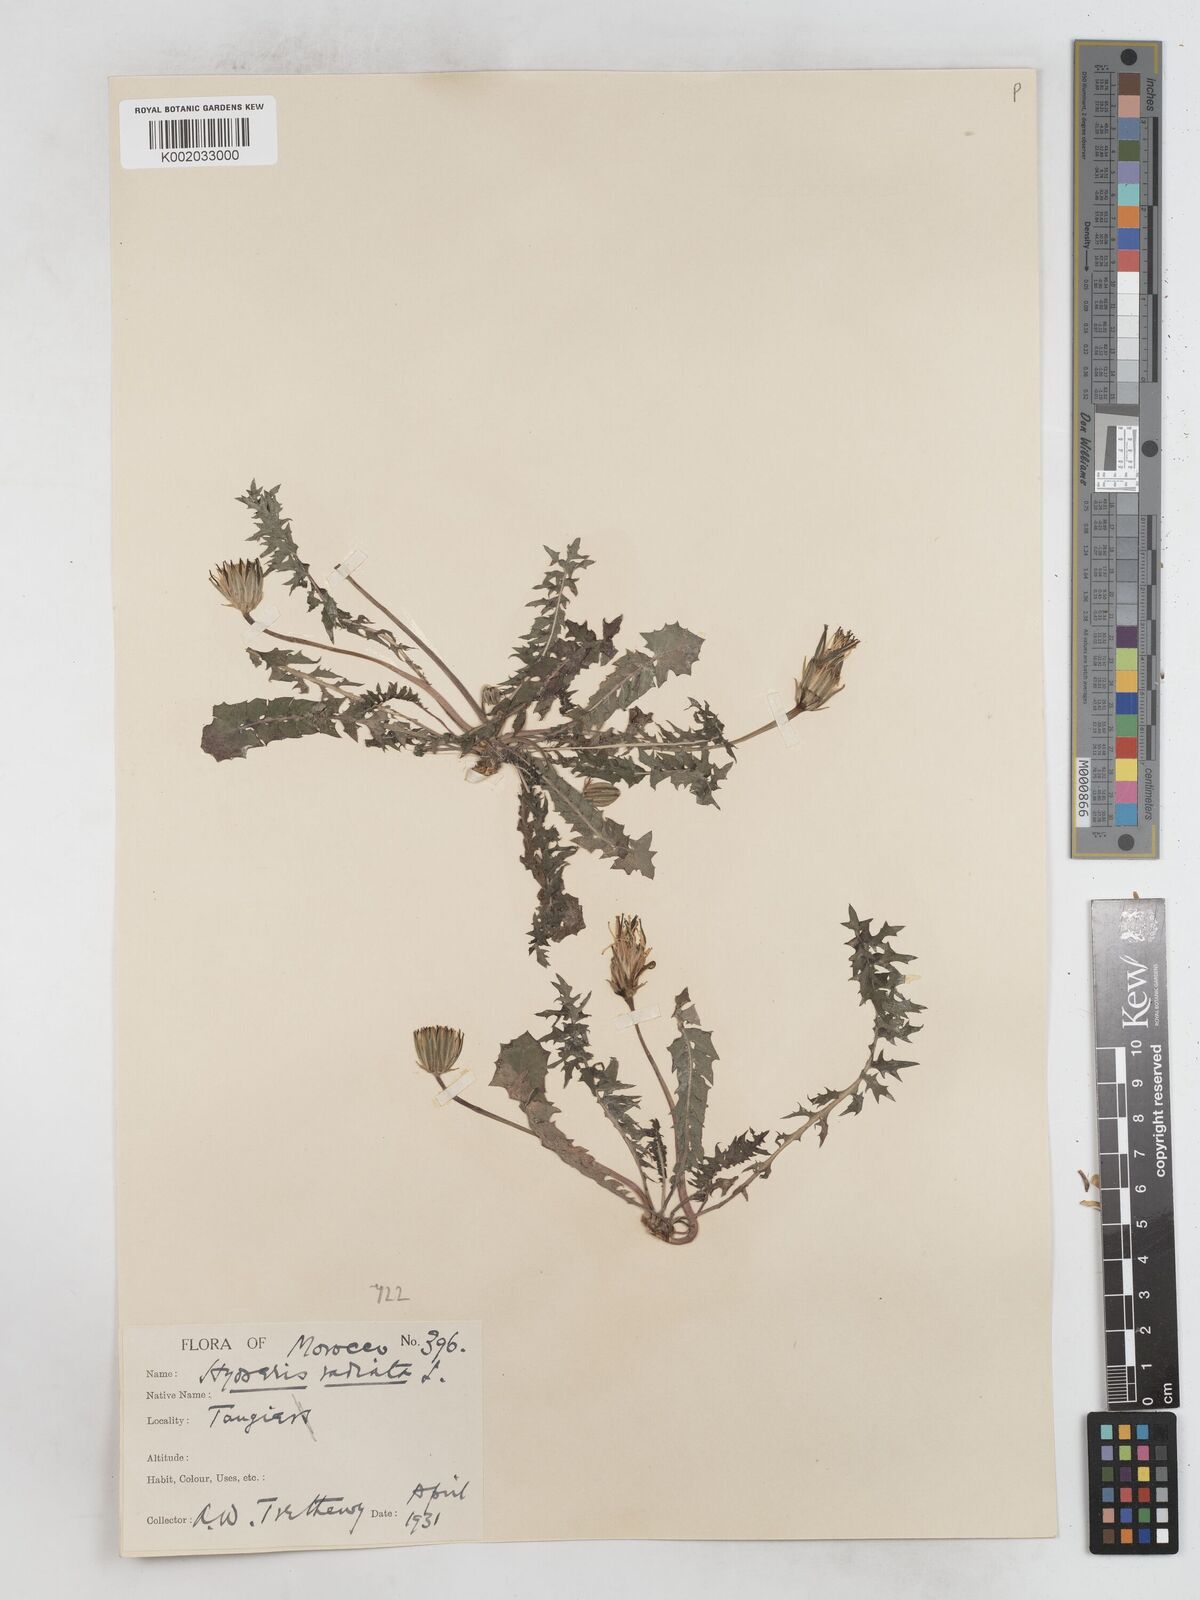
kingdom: Plantae
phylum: Tracheophyta
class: Magnoliopsida
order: Asterales
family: Asteraceae
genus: Hyoseris
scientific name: Hyoseris radiata
